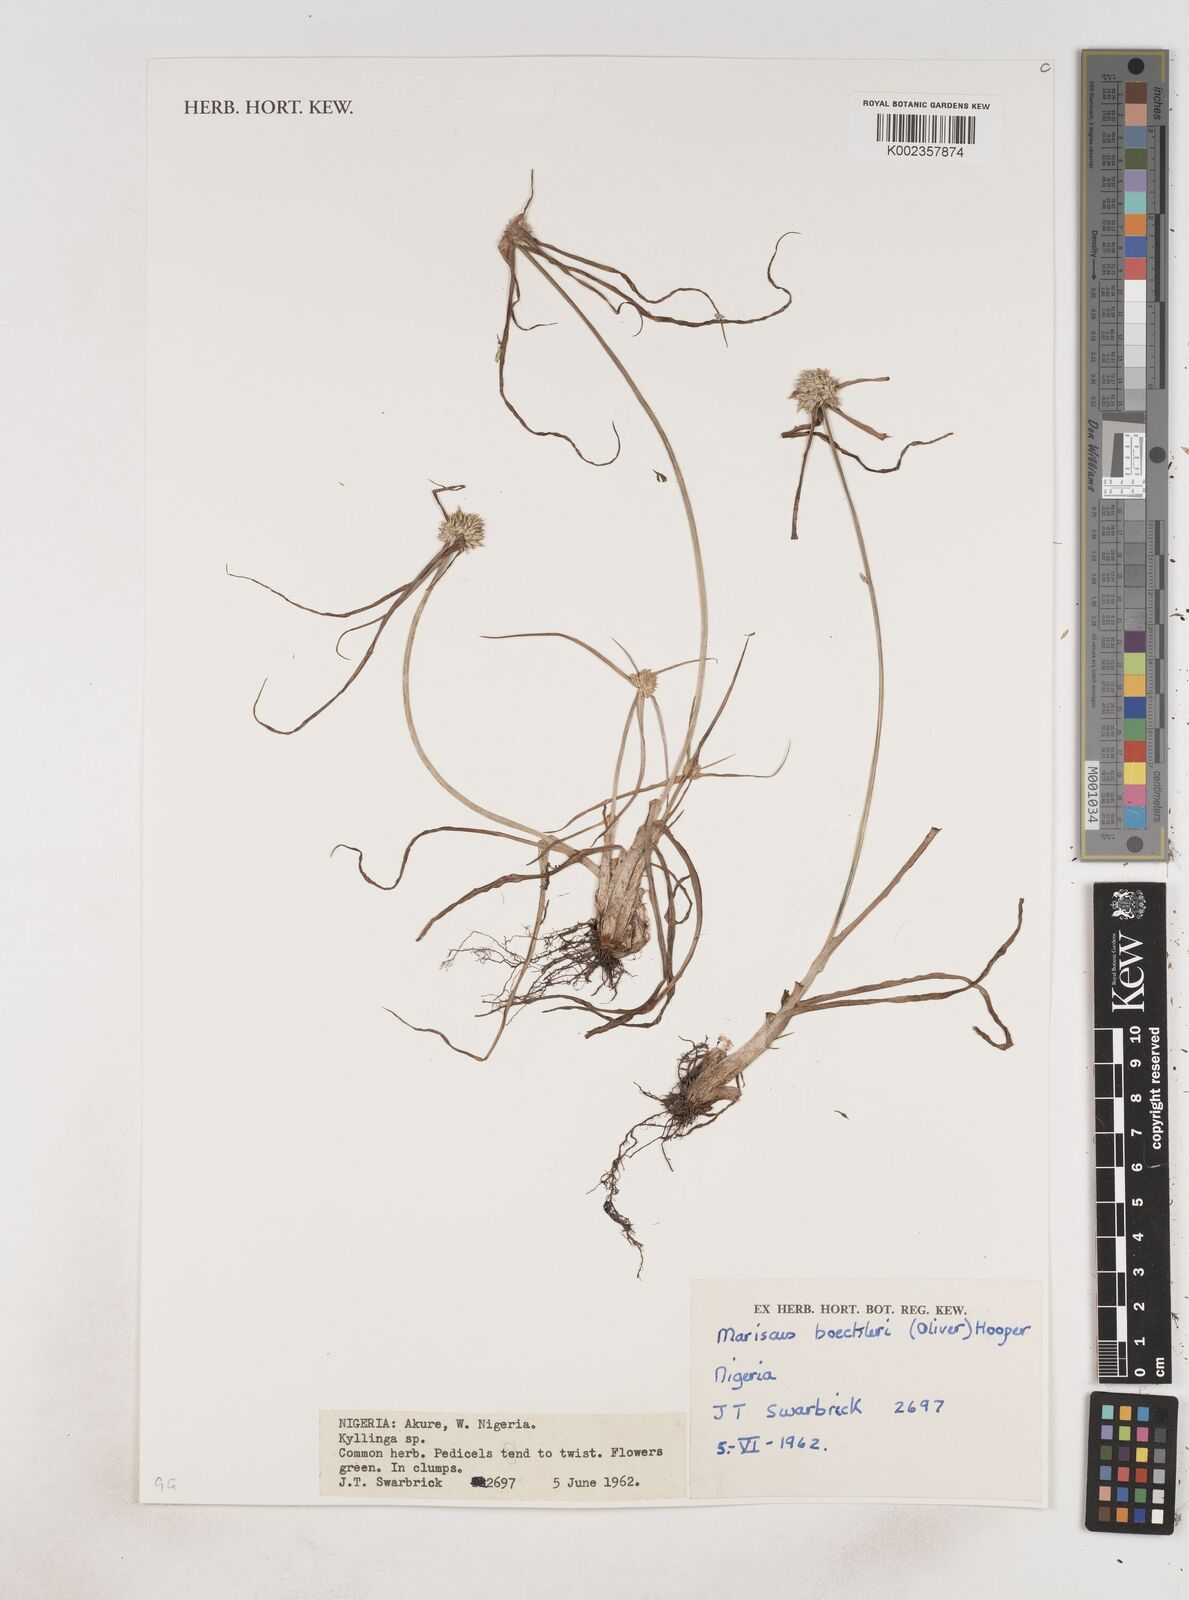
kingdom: Plantae
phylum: Tracheophyta
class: Liliopsida
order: Poales
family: Cyperaceae
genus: Cyperus
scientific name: Cyperus dubius
